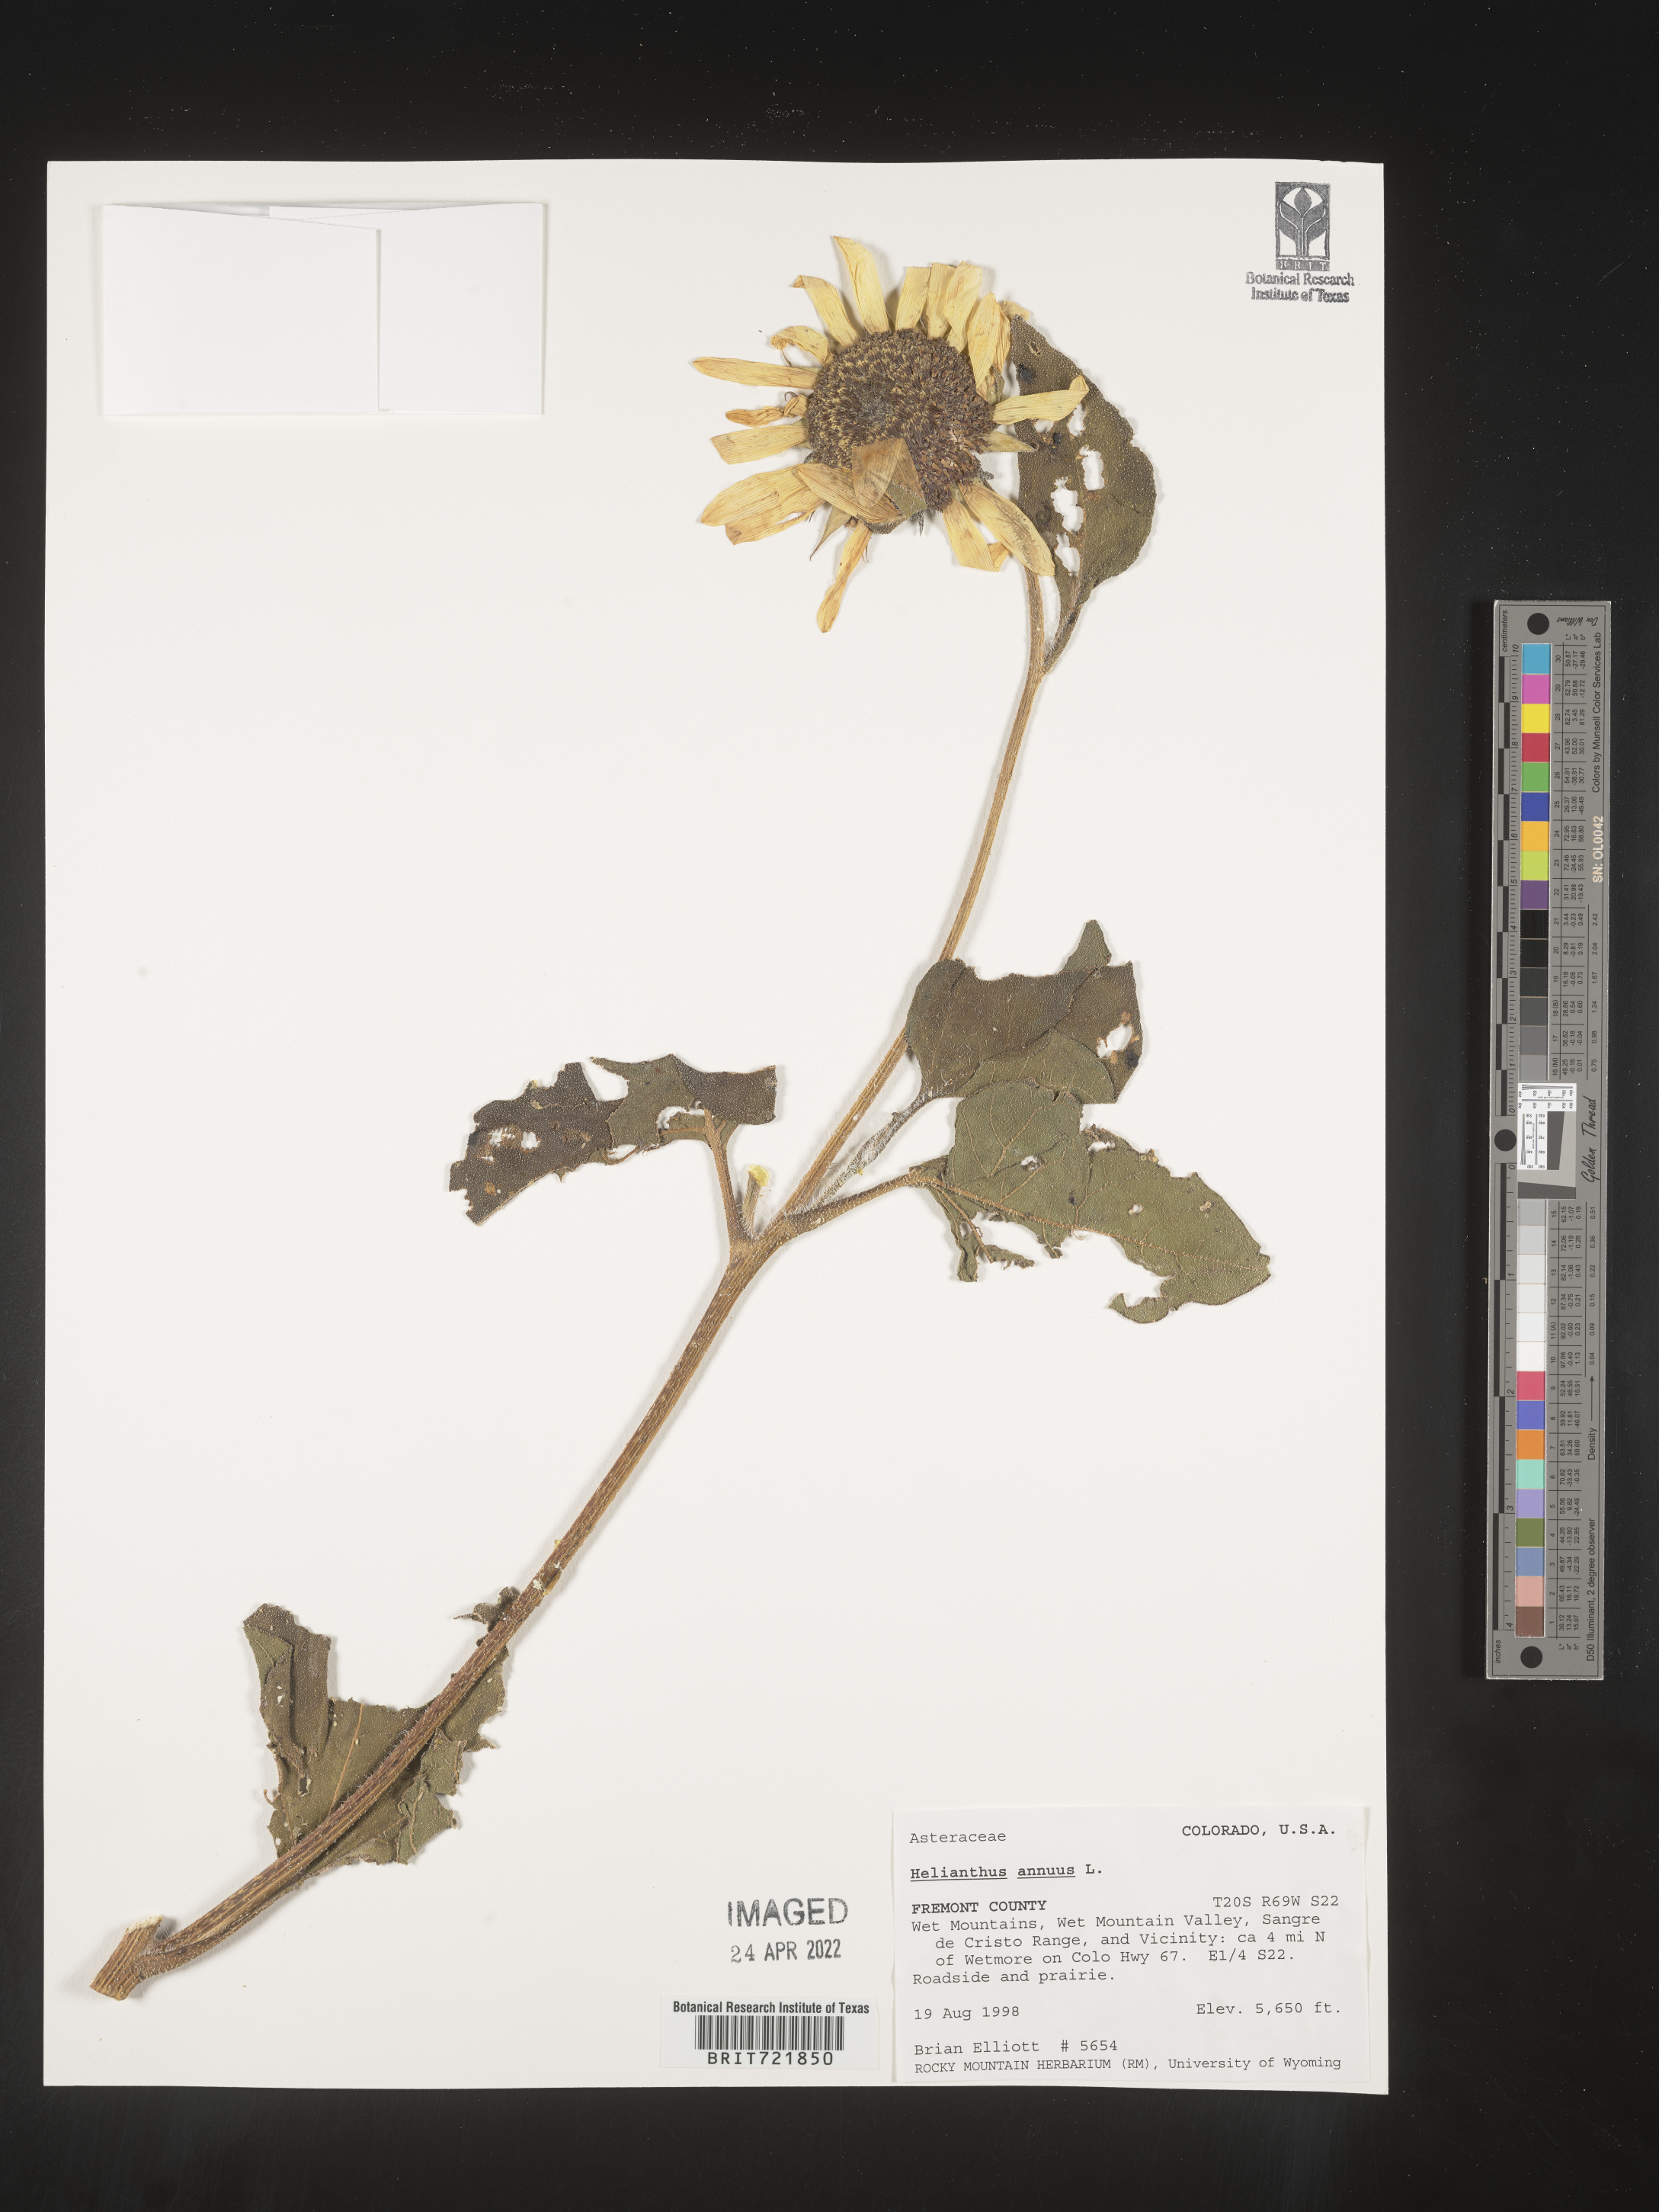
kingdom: Plantae
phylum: Tracheophyta
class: Magnoliopsida
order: Asterales
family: Asteraceae
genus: Helianthus
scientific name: Helianthus annuus
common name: Sunflower
